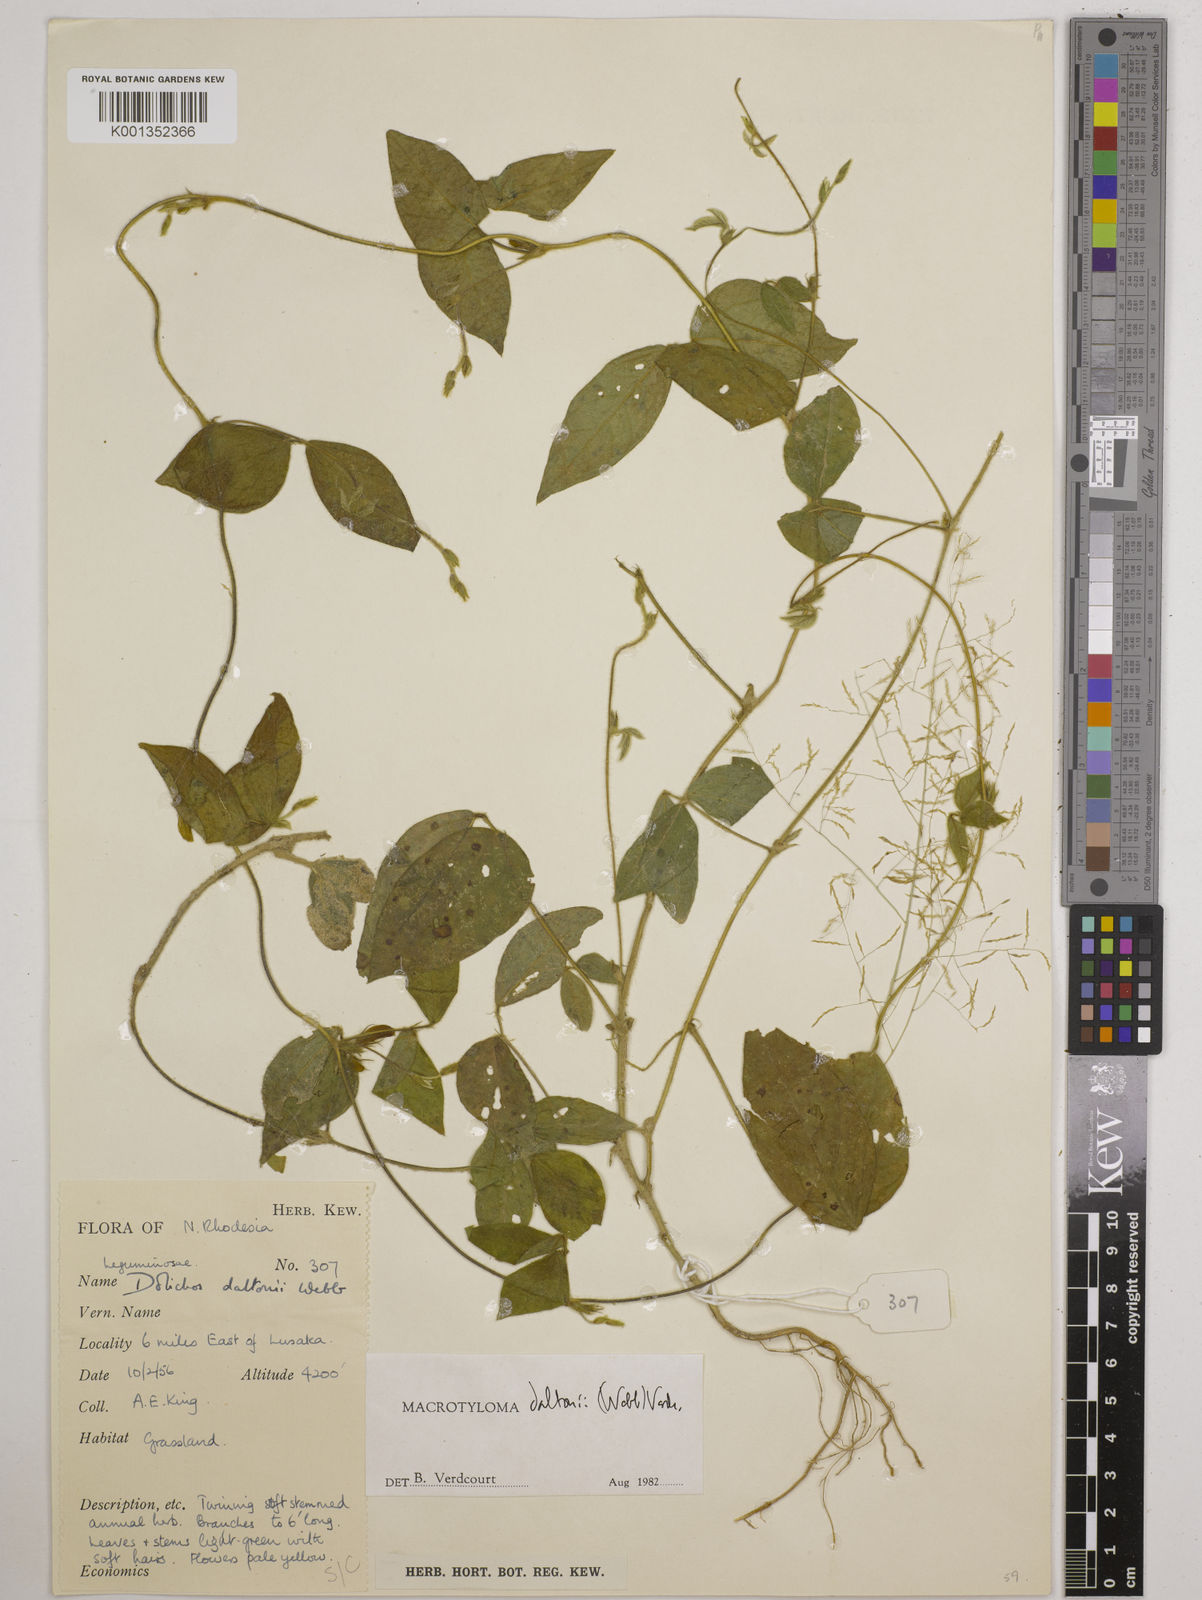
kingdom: Plantae
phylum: Tracheophyta
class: Magnoliopsida
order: Fabales
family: Fabaceae
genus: Macrotyloma
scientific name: Macrotyloma daltonii
